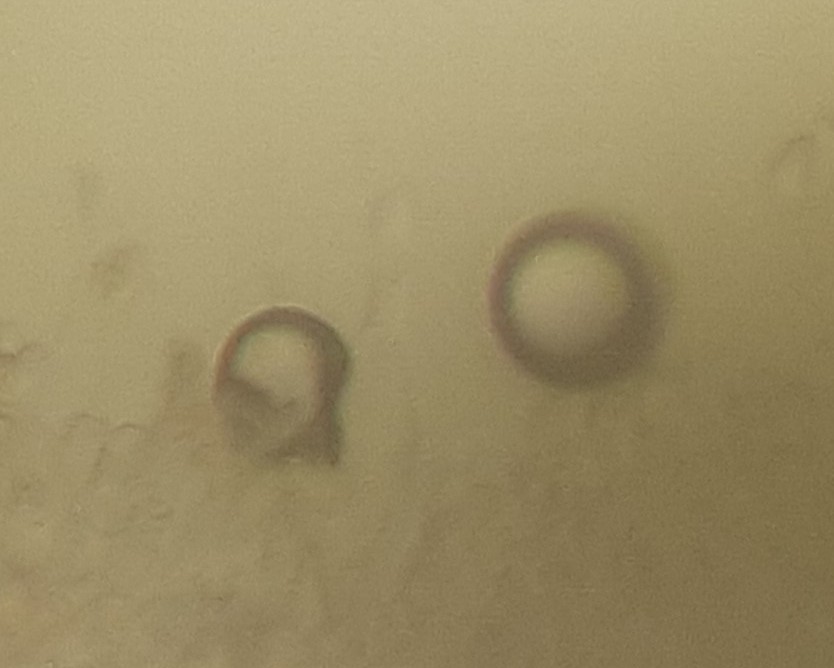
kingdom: Fungi
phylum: Basidiomycota
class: Agaricomycetes
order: Agaricales
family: Mycenaceae
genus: Atheniella
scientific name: Atheniella delectabilis
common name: nitrøs huesvamp
